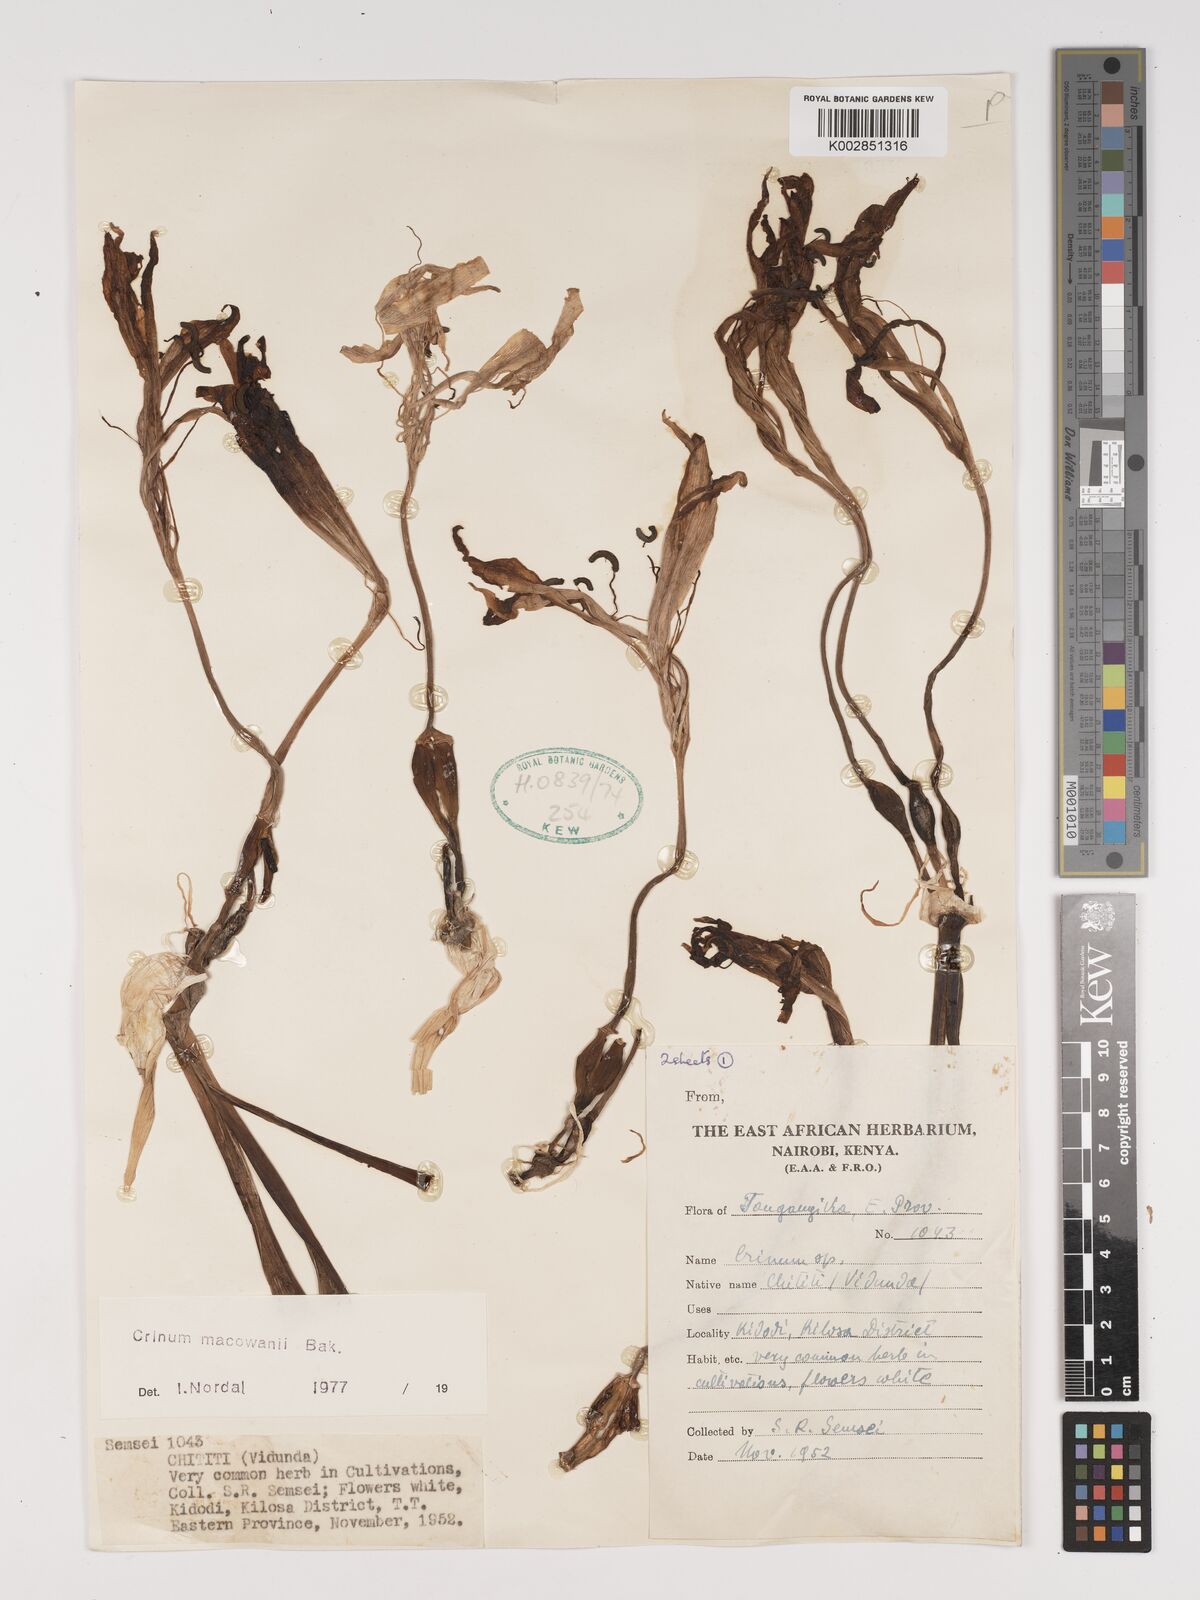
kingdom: Plantae
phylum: Tracheophyta
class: Liliopsida
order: Asparagales
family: Amaryllidaceae
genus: Crinum
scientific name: Crinum macowanii
